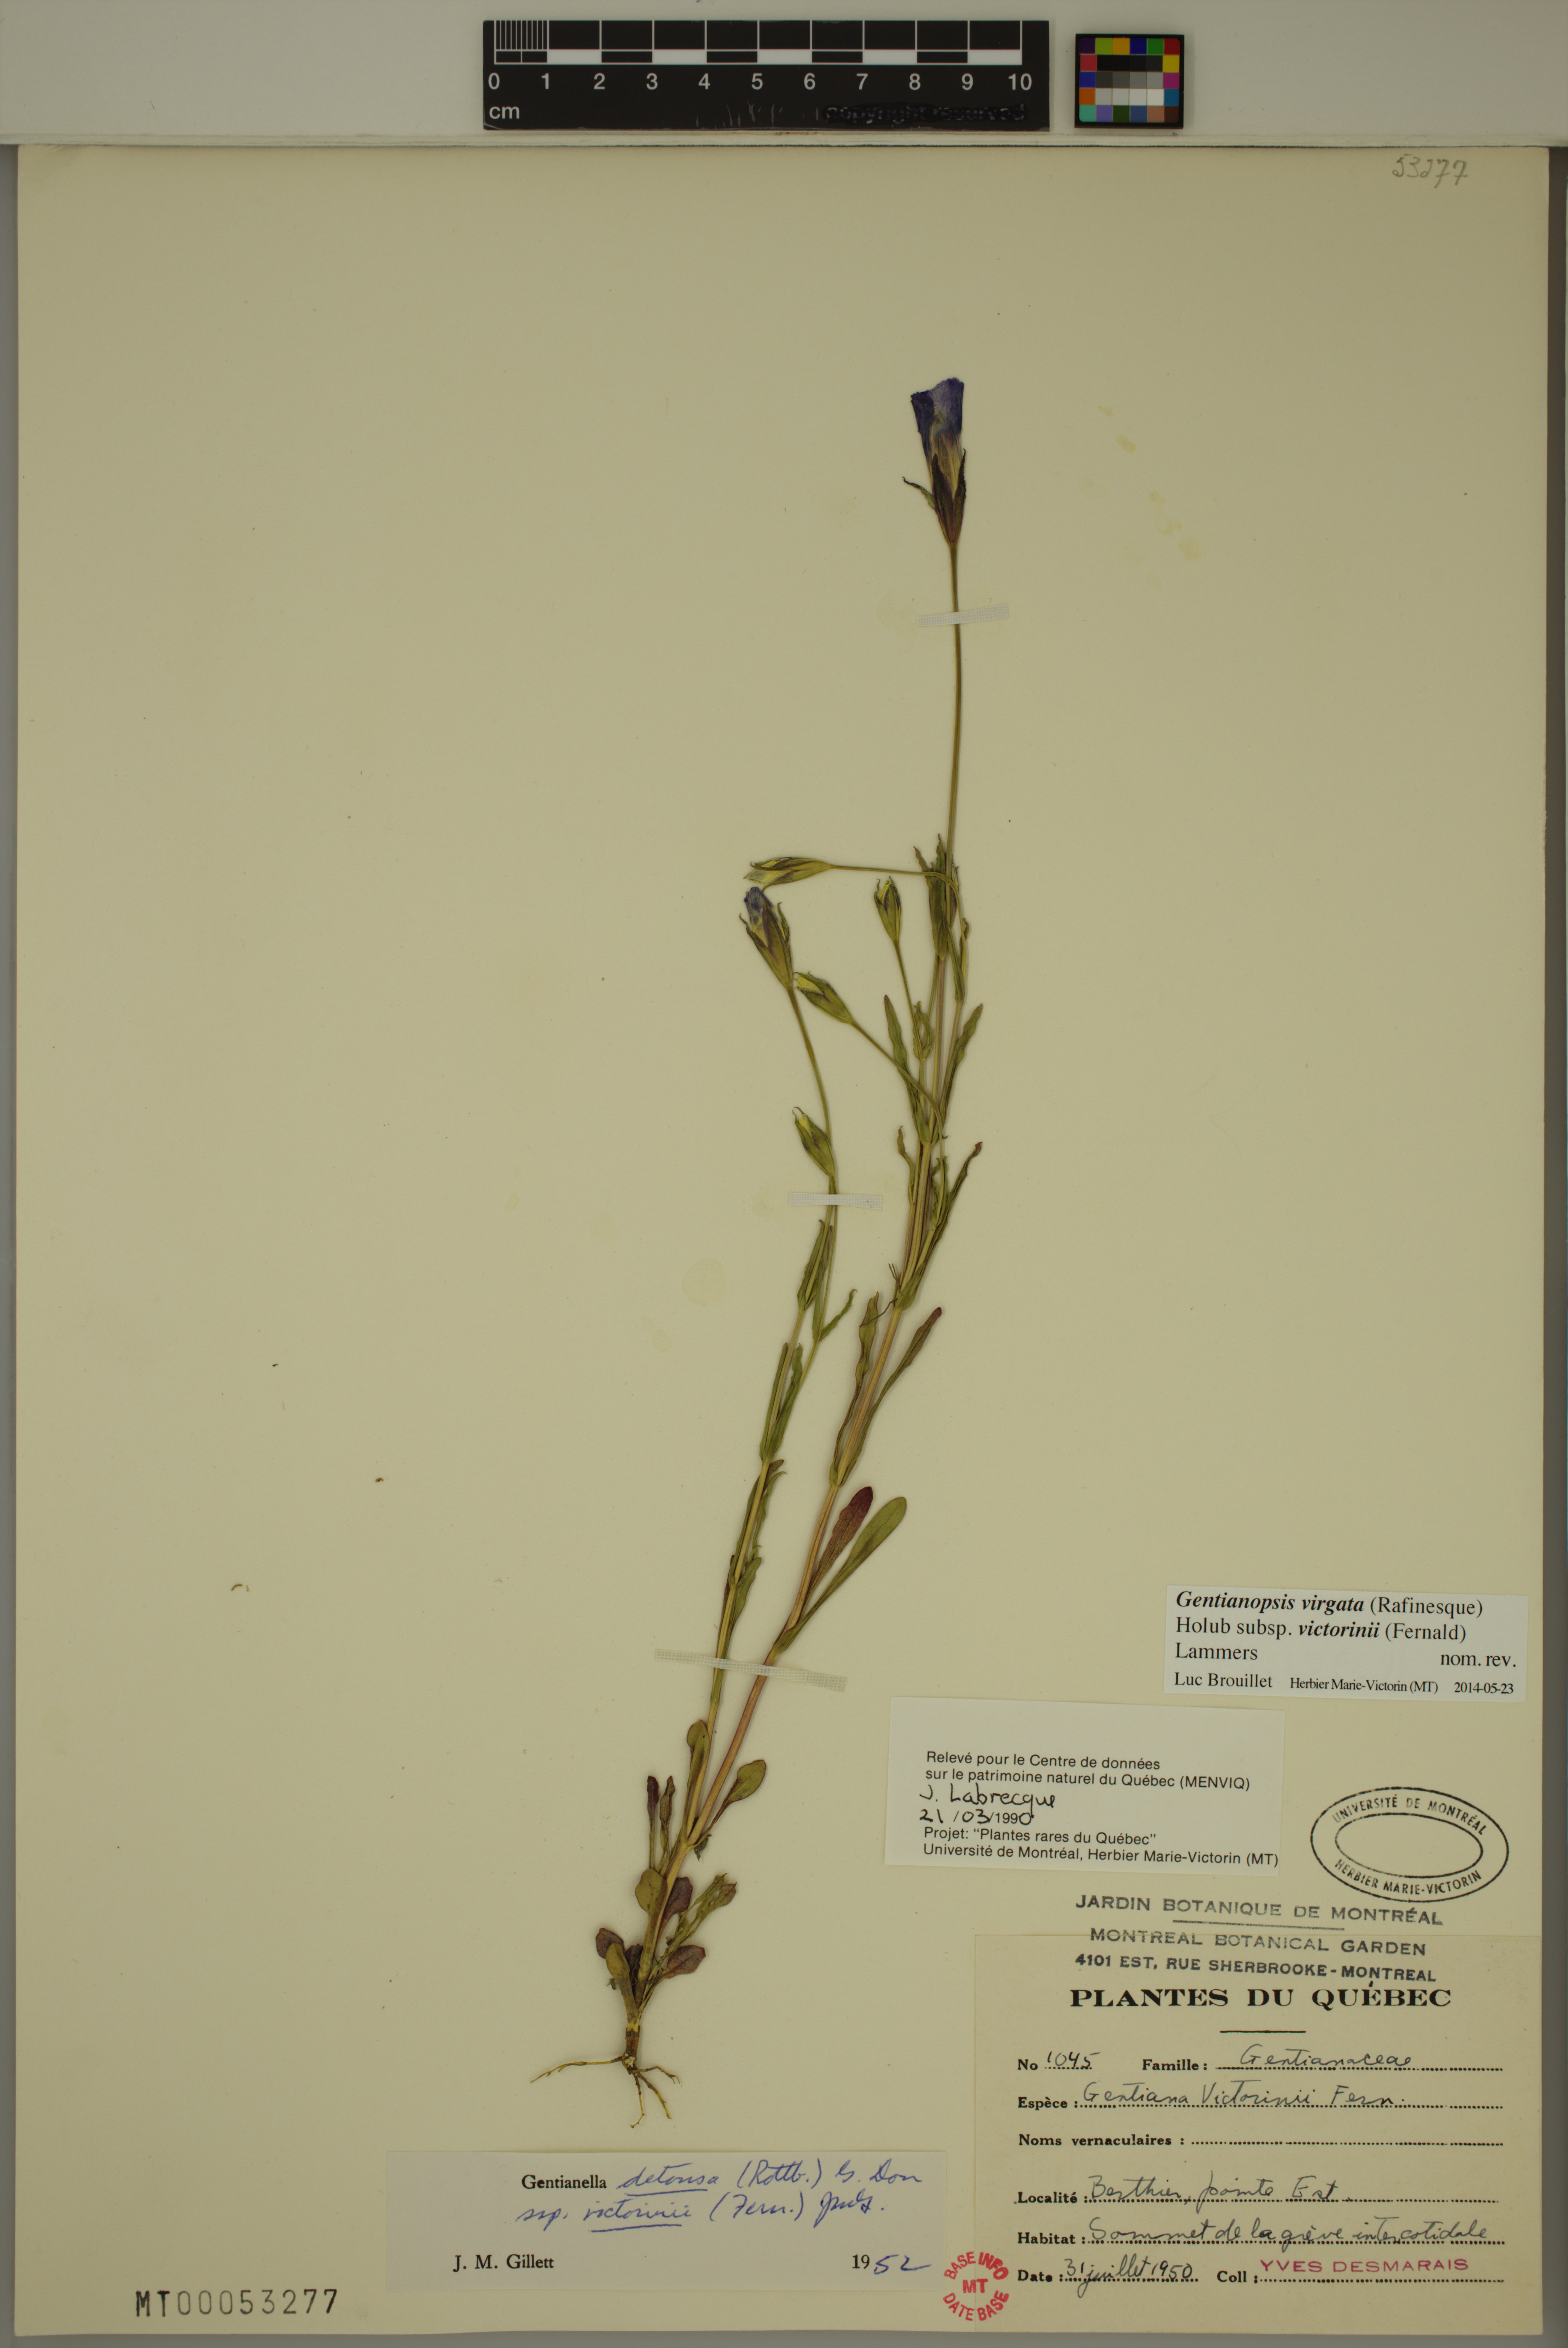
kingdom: Plantae
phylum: Tracheophyta
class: Magnoliopsida
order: Gentianales
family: Gentianaceae
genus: Gentianopsis
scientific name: Gentianopsis victorinii
